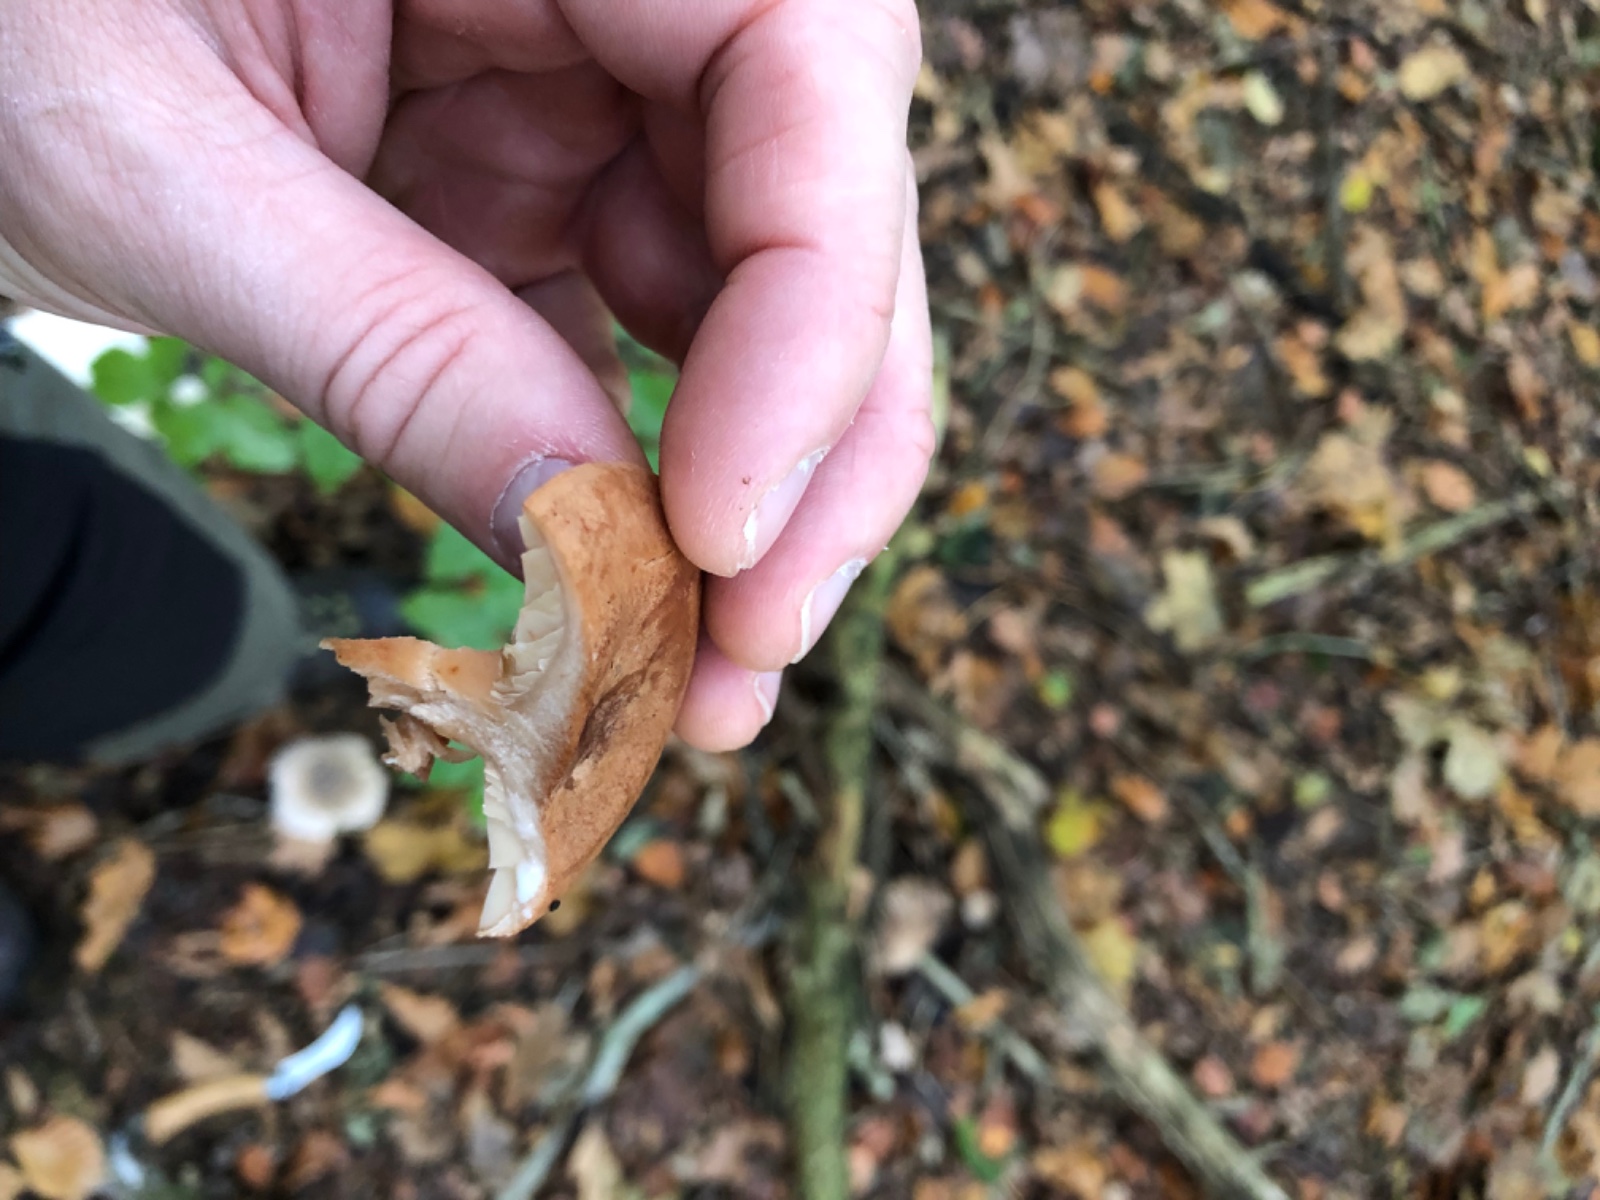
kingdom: Fungi
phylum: Basidiomycota
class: Agaricomycetes
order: Russulales
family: Russulaceae
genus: Lactarius
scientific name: Lactarius
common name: mælkehat
